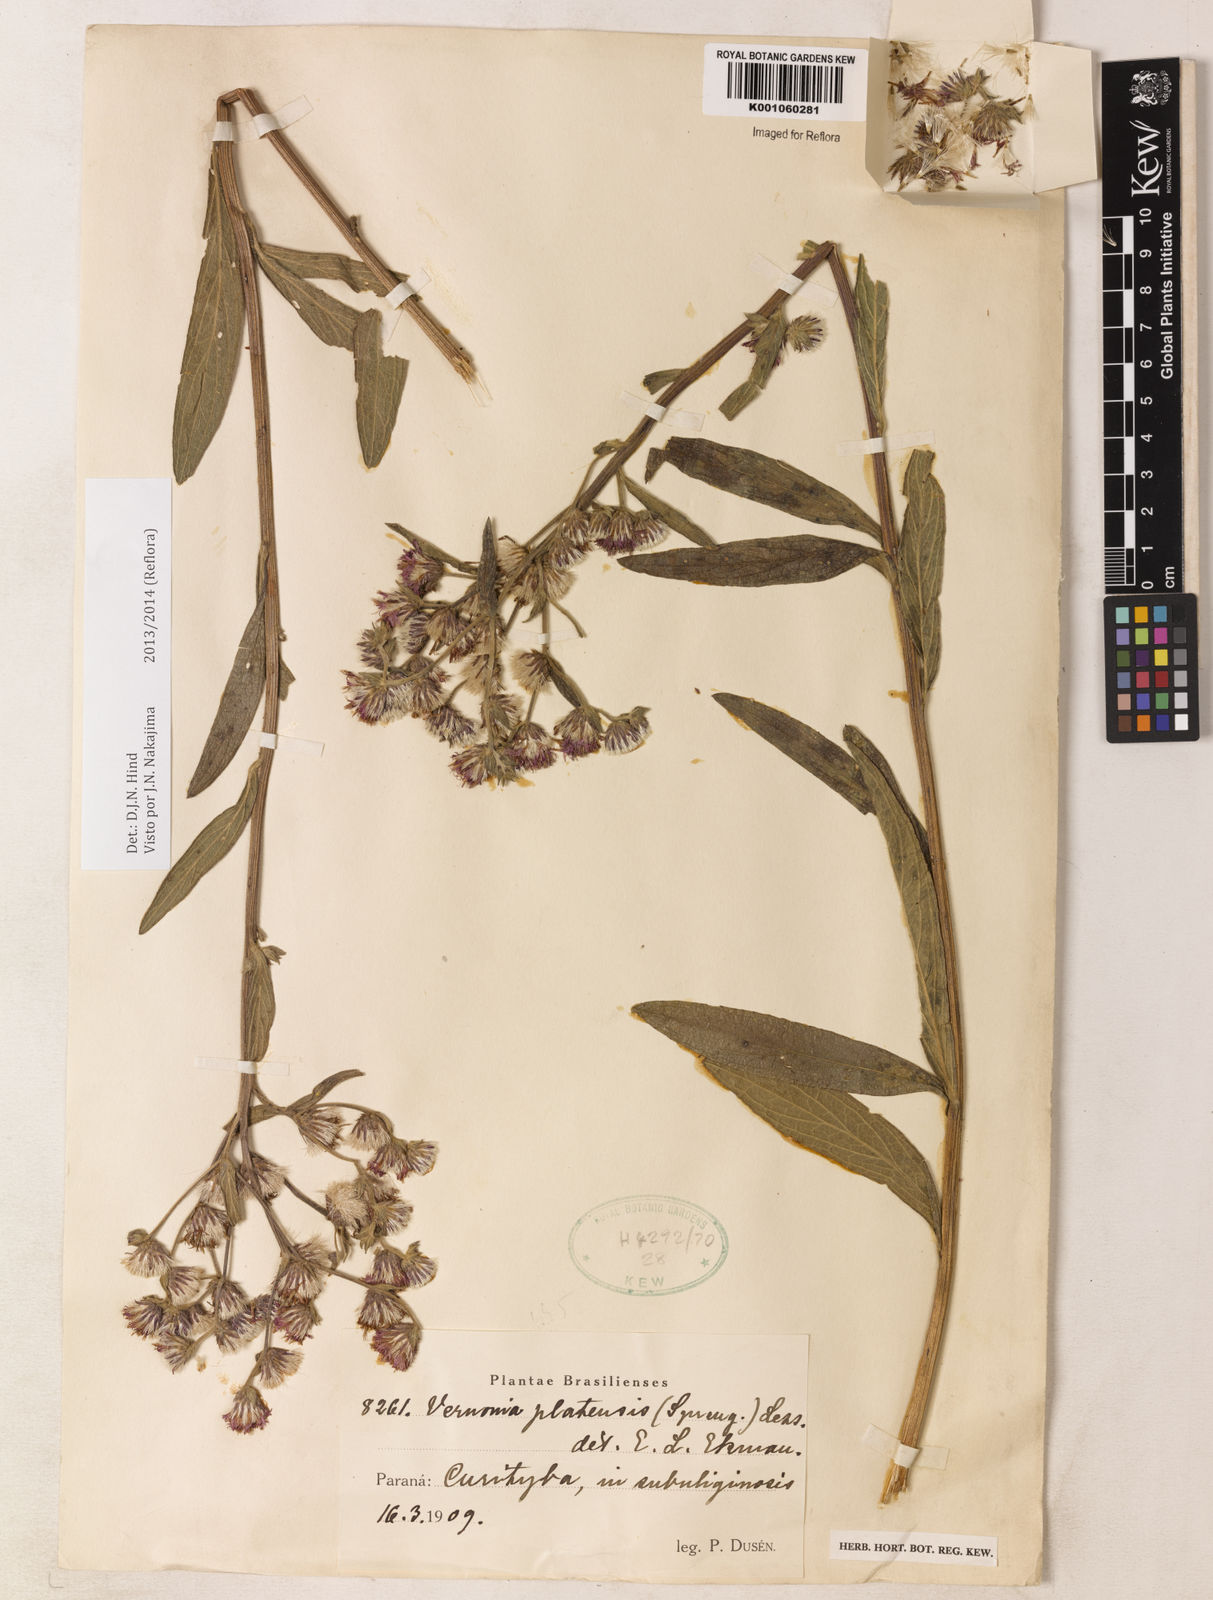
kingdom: Plantae
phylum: Tracheophyta
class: Magnoliopsida
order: Asterales
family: Asteraceae
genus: Chrysolaena
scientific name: Chrysolaena platensis
